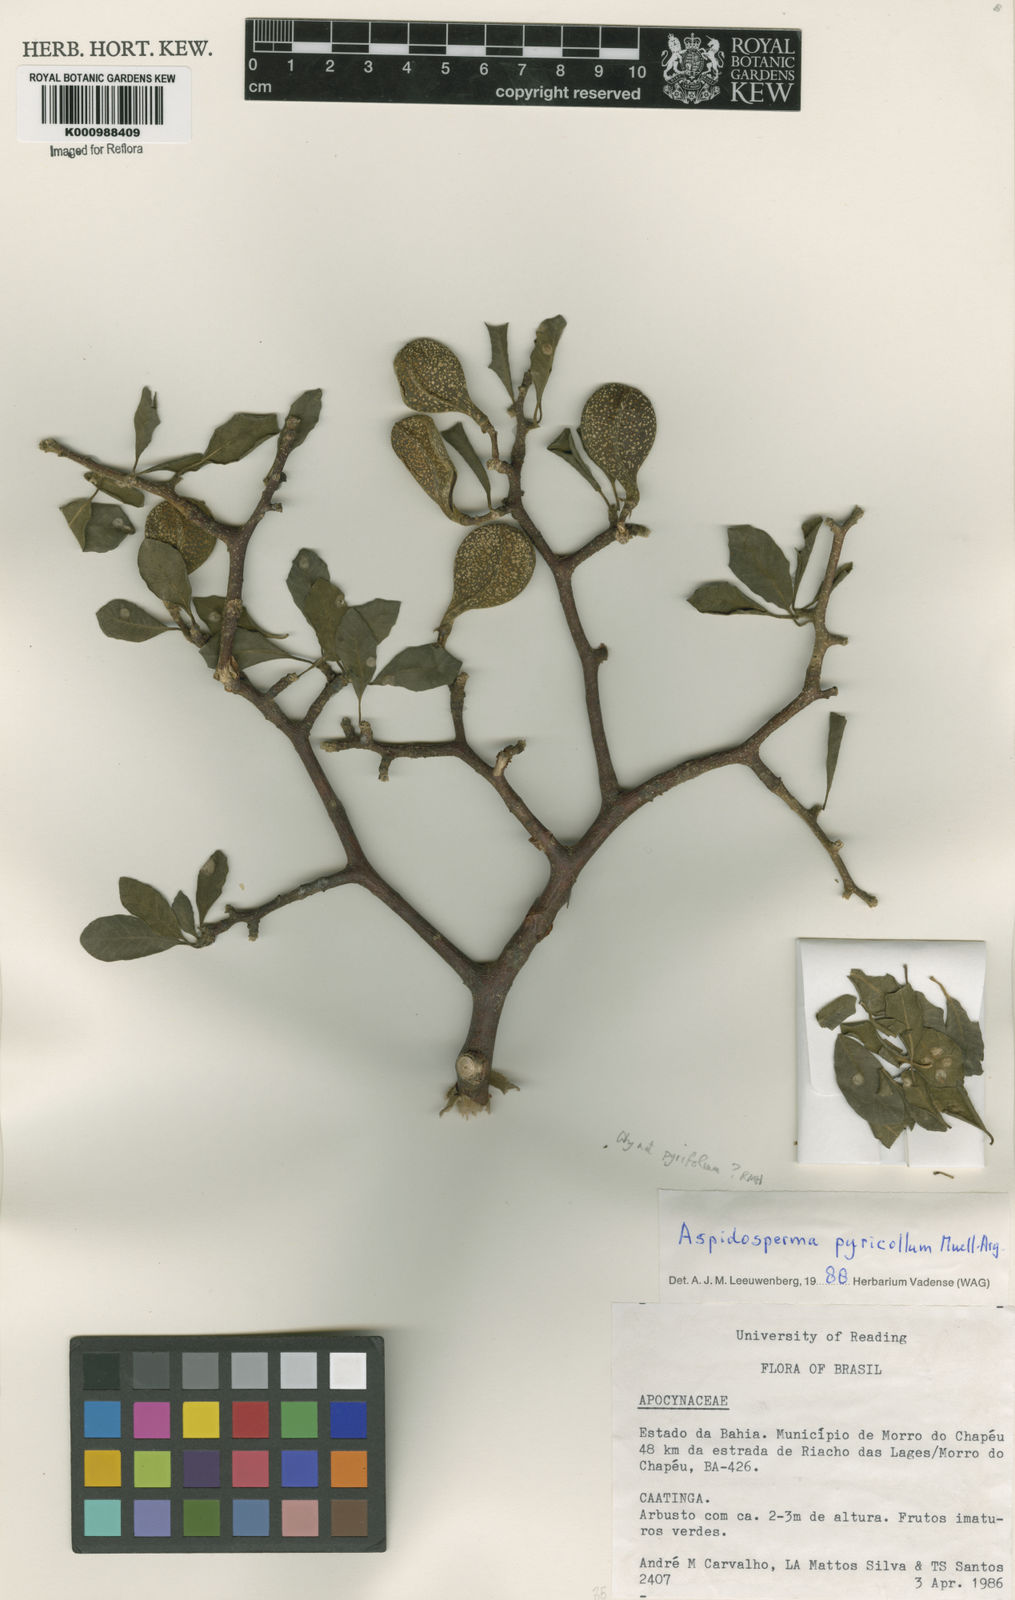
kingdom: Plantae
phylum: Tracheophyta
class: Magnoliopsida
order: Gentianales
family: Apocynaceae
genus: Aspidosperma
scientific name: Aspidosperma
